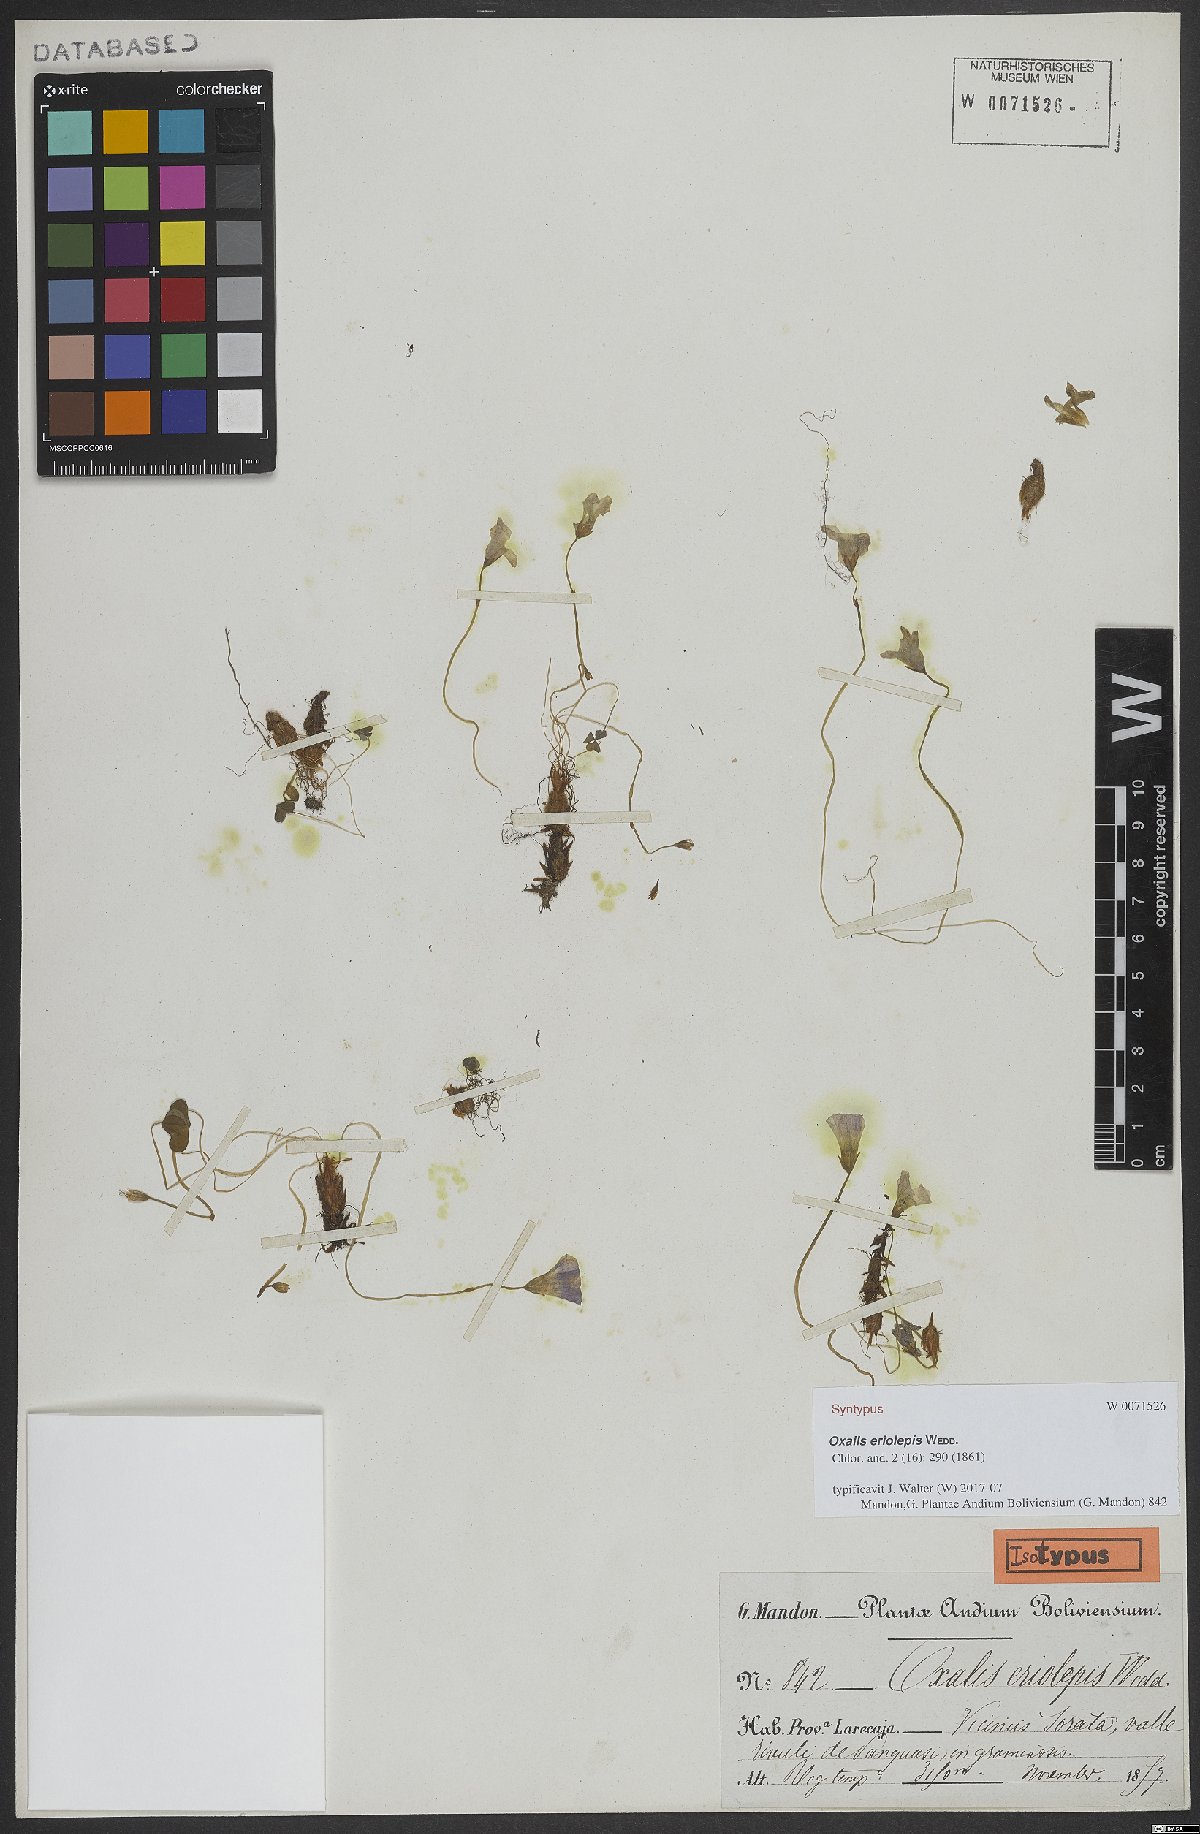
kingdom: Plantae
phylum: Tracheophyta
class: Magnoliopsida
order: Oxalidales
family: Oxalidaceae
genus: Oxalis
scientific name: Oxalis eriolepis
